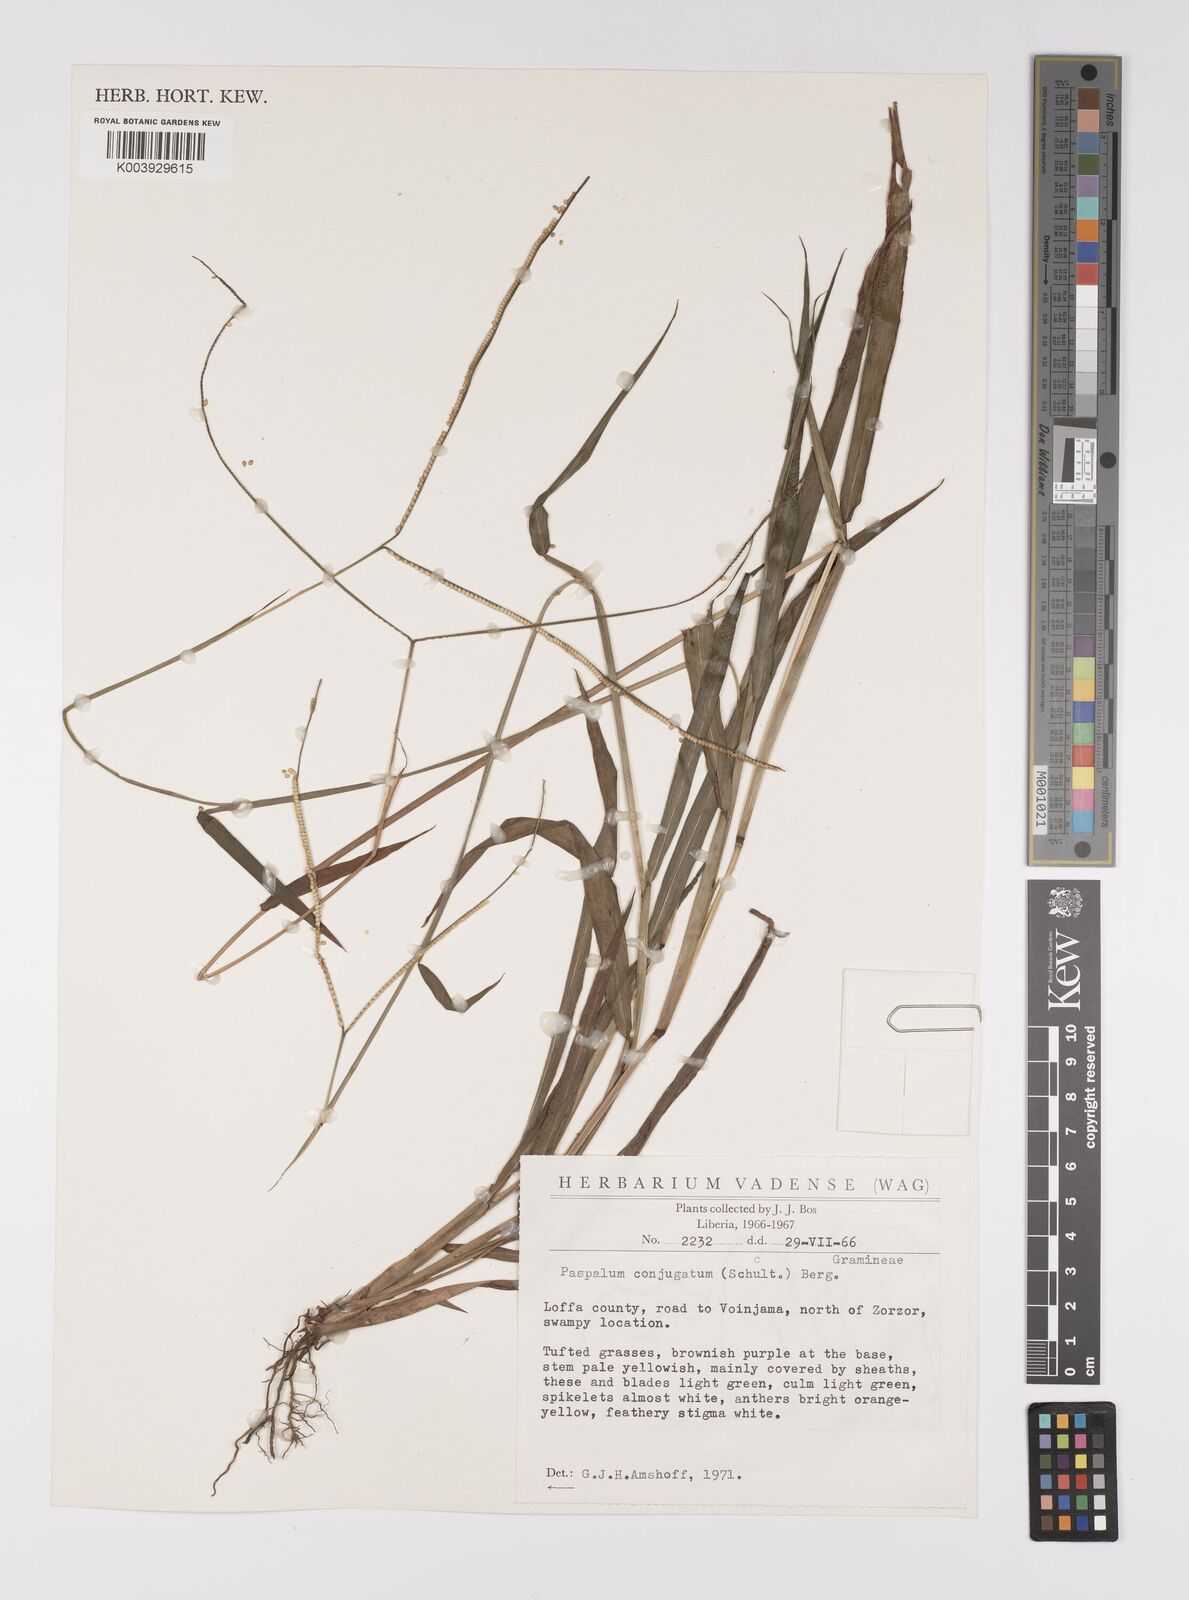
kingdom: Plantae
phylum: Tracheophyta
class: Liliopsida
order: Poales
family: Poaceae
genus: Paspalum
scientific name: Paspalum conjugatum
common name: Hilograss
